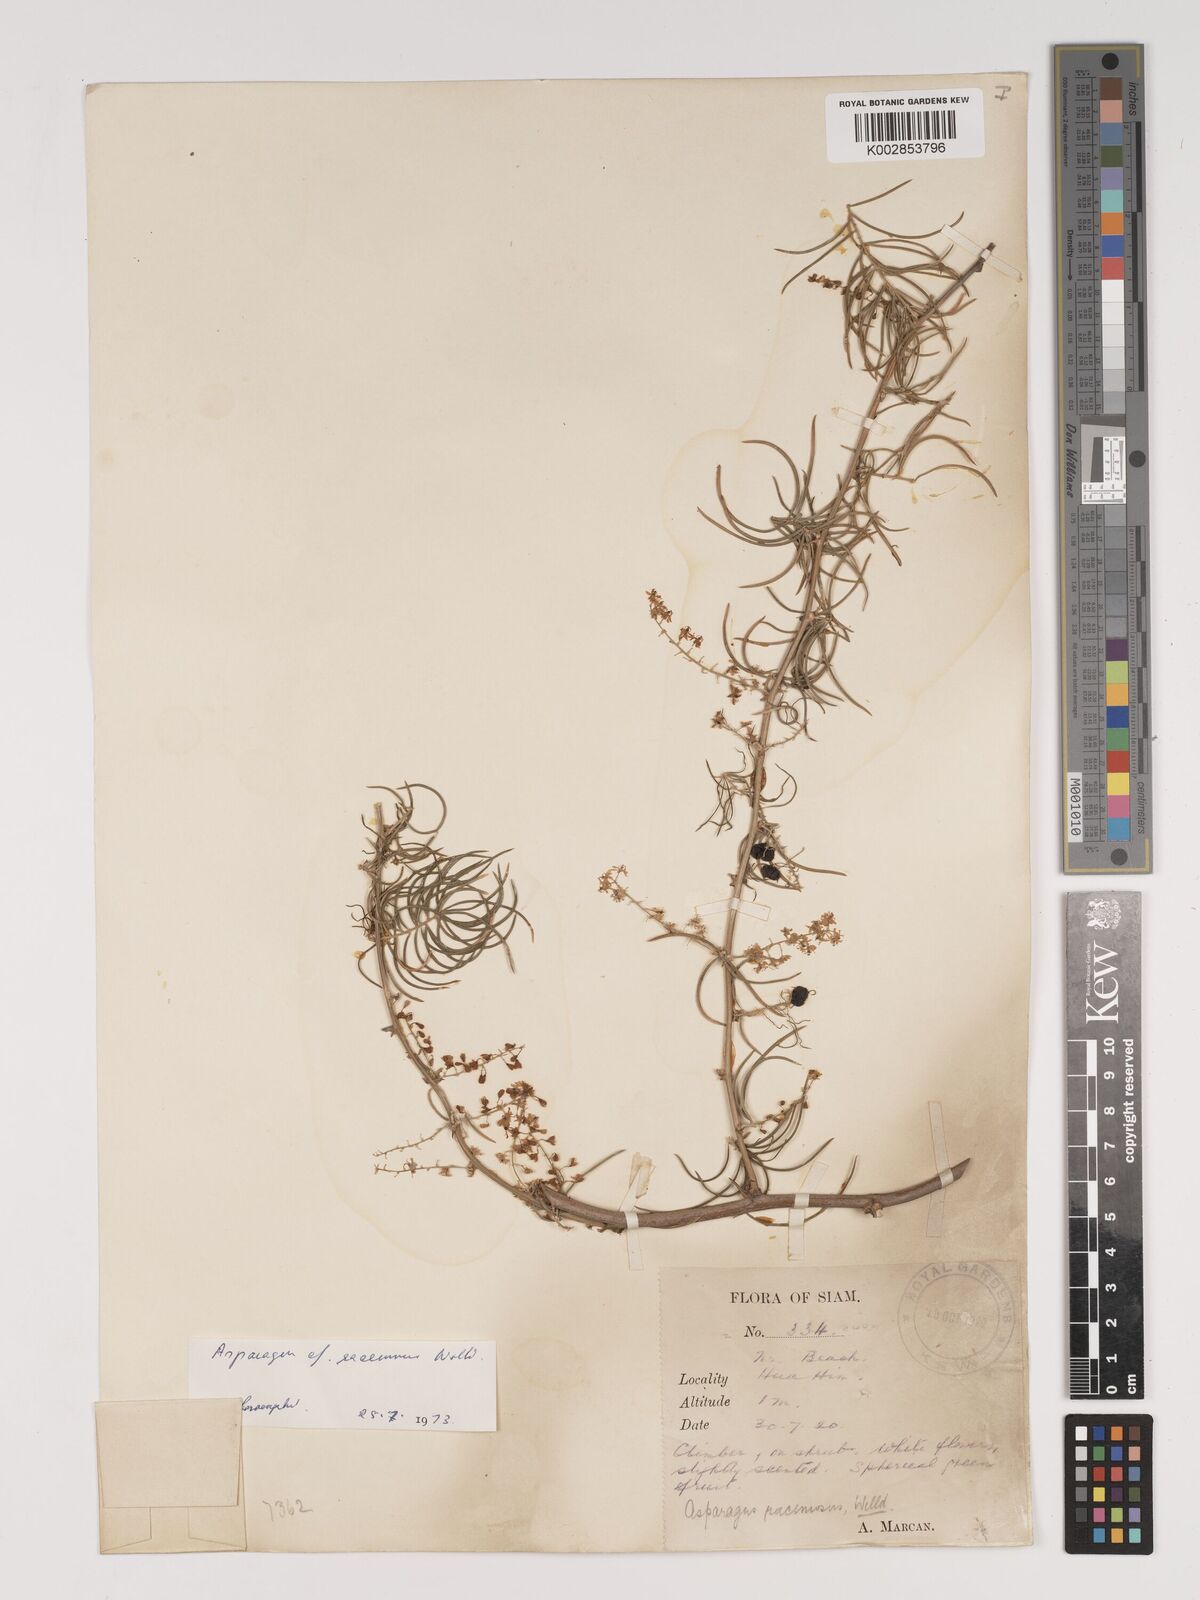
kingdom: Plantae
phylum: Tracheophyta
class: Liliopsida
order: Asparagales
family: Asparagaceae
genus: Asparagus
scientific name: Asparagus racemosus
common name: Asparagus-fern
